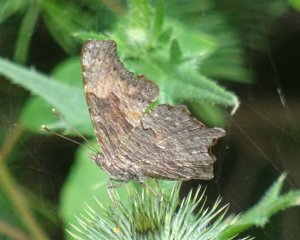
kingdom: Animalia
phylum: Arthropoda
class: Insecta
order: Lepidoptera
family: Nymphalidae
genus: Polygonia
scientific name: Polygonia progne
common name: Gray Comma
